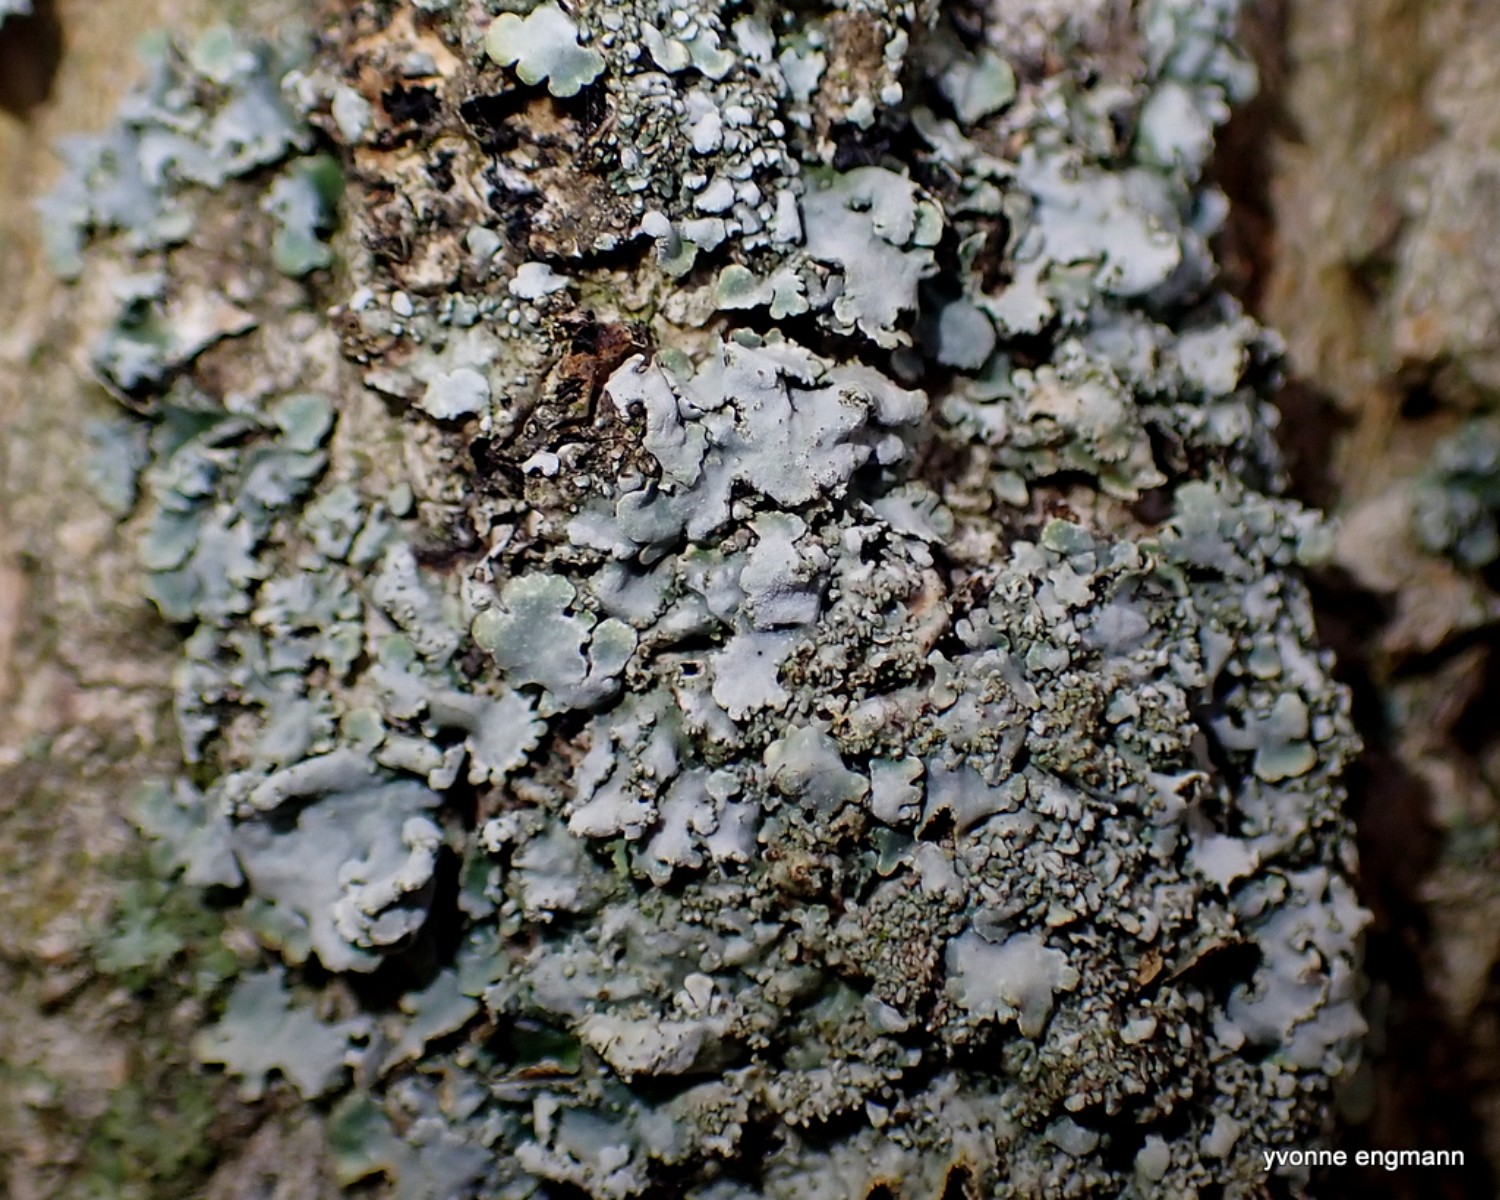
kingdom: Fungi
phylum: Ascomycota
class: Lecanoromycetes
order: Lecanorales
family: Parmeliaceae
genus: Parmelia
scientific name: Parmelia ernstiae
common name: rimstift-skållav
